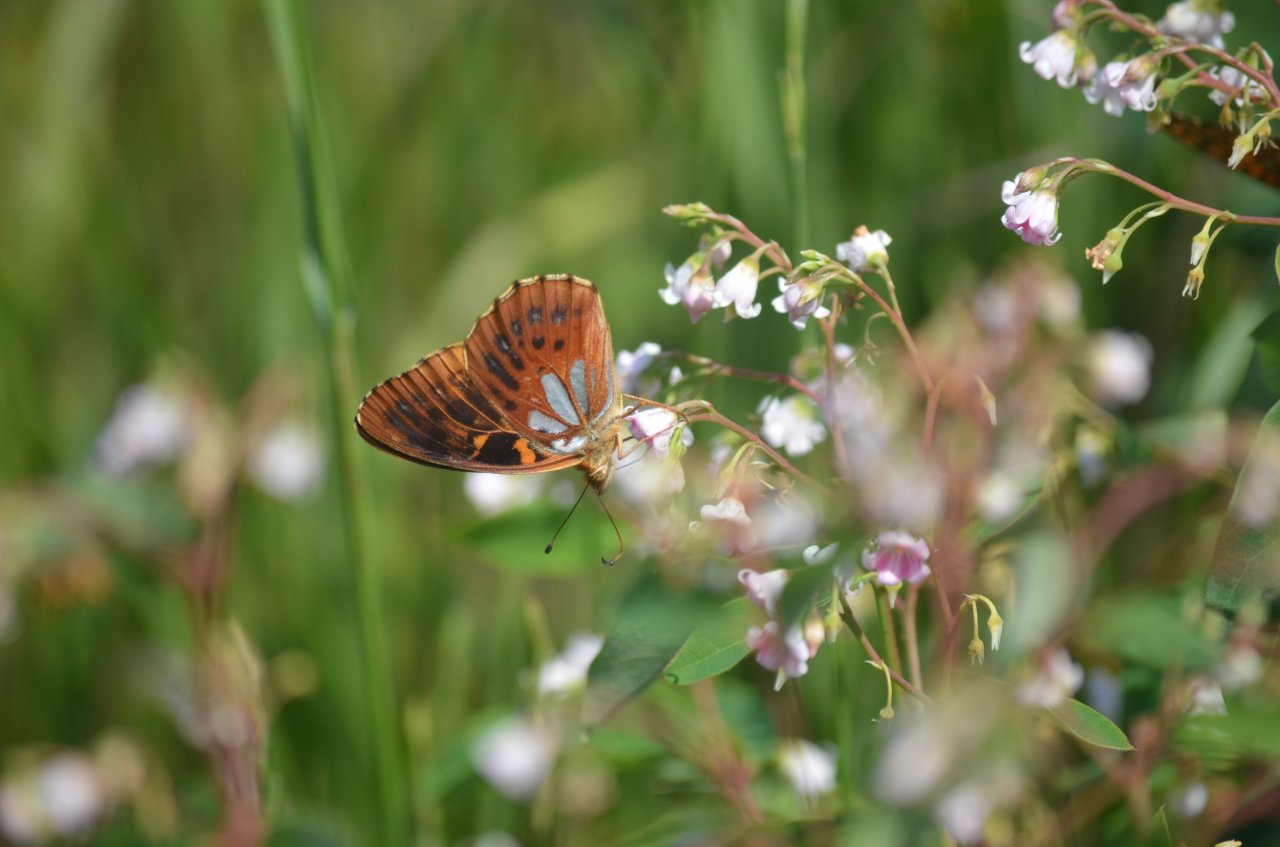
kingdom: Animalia
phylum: Arthropoda
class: Insecta
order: Lepidoptera
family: Nymphalidae
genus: Speyeria
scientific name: Speyeria aphrodite
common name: Aphrodite Fritillary
